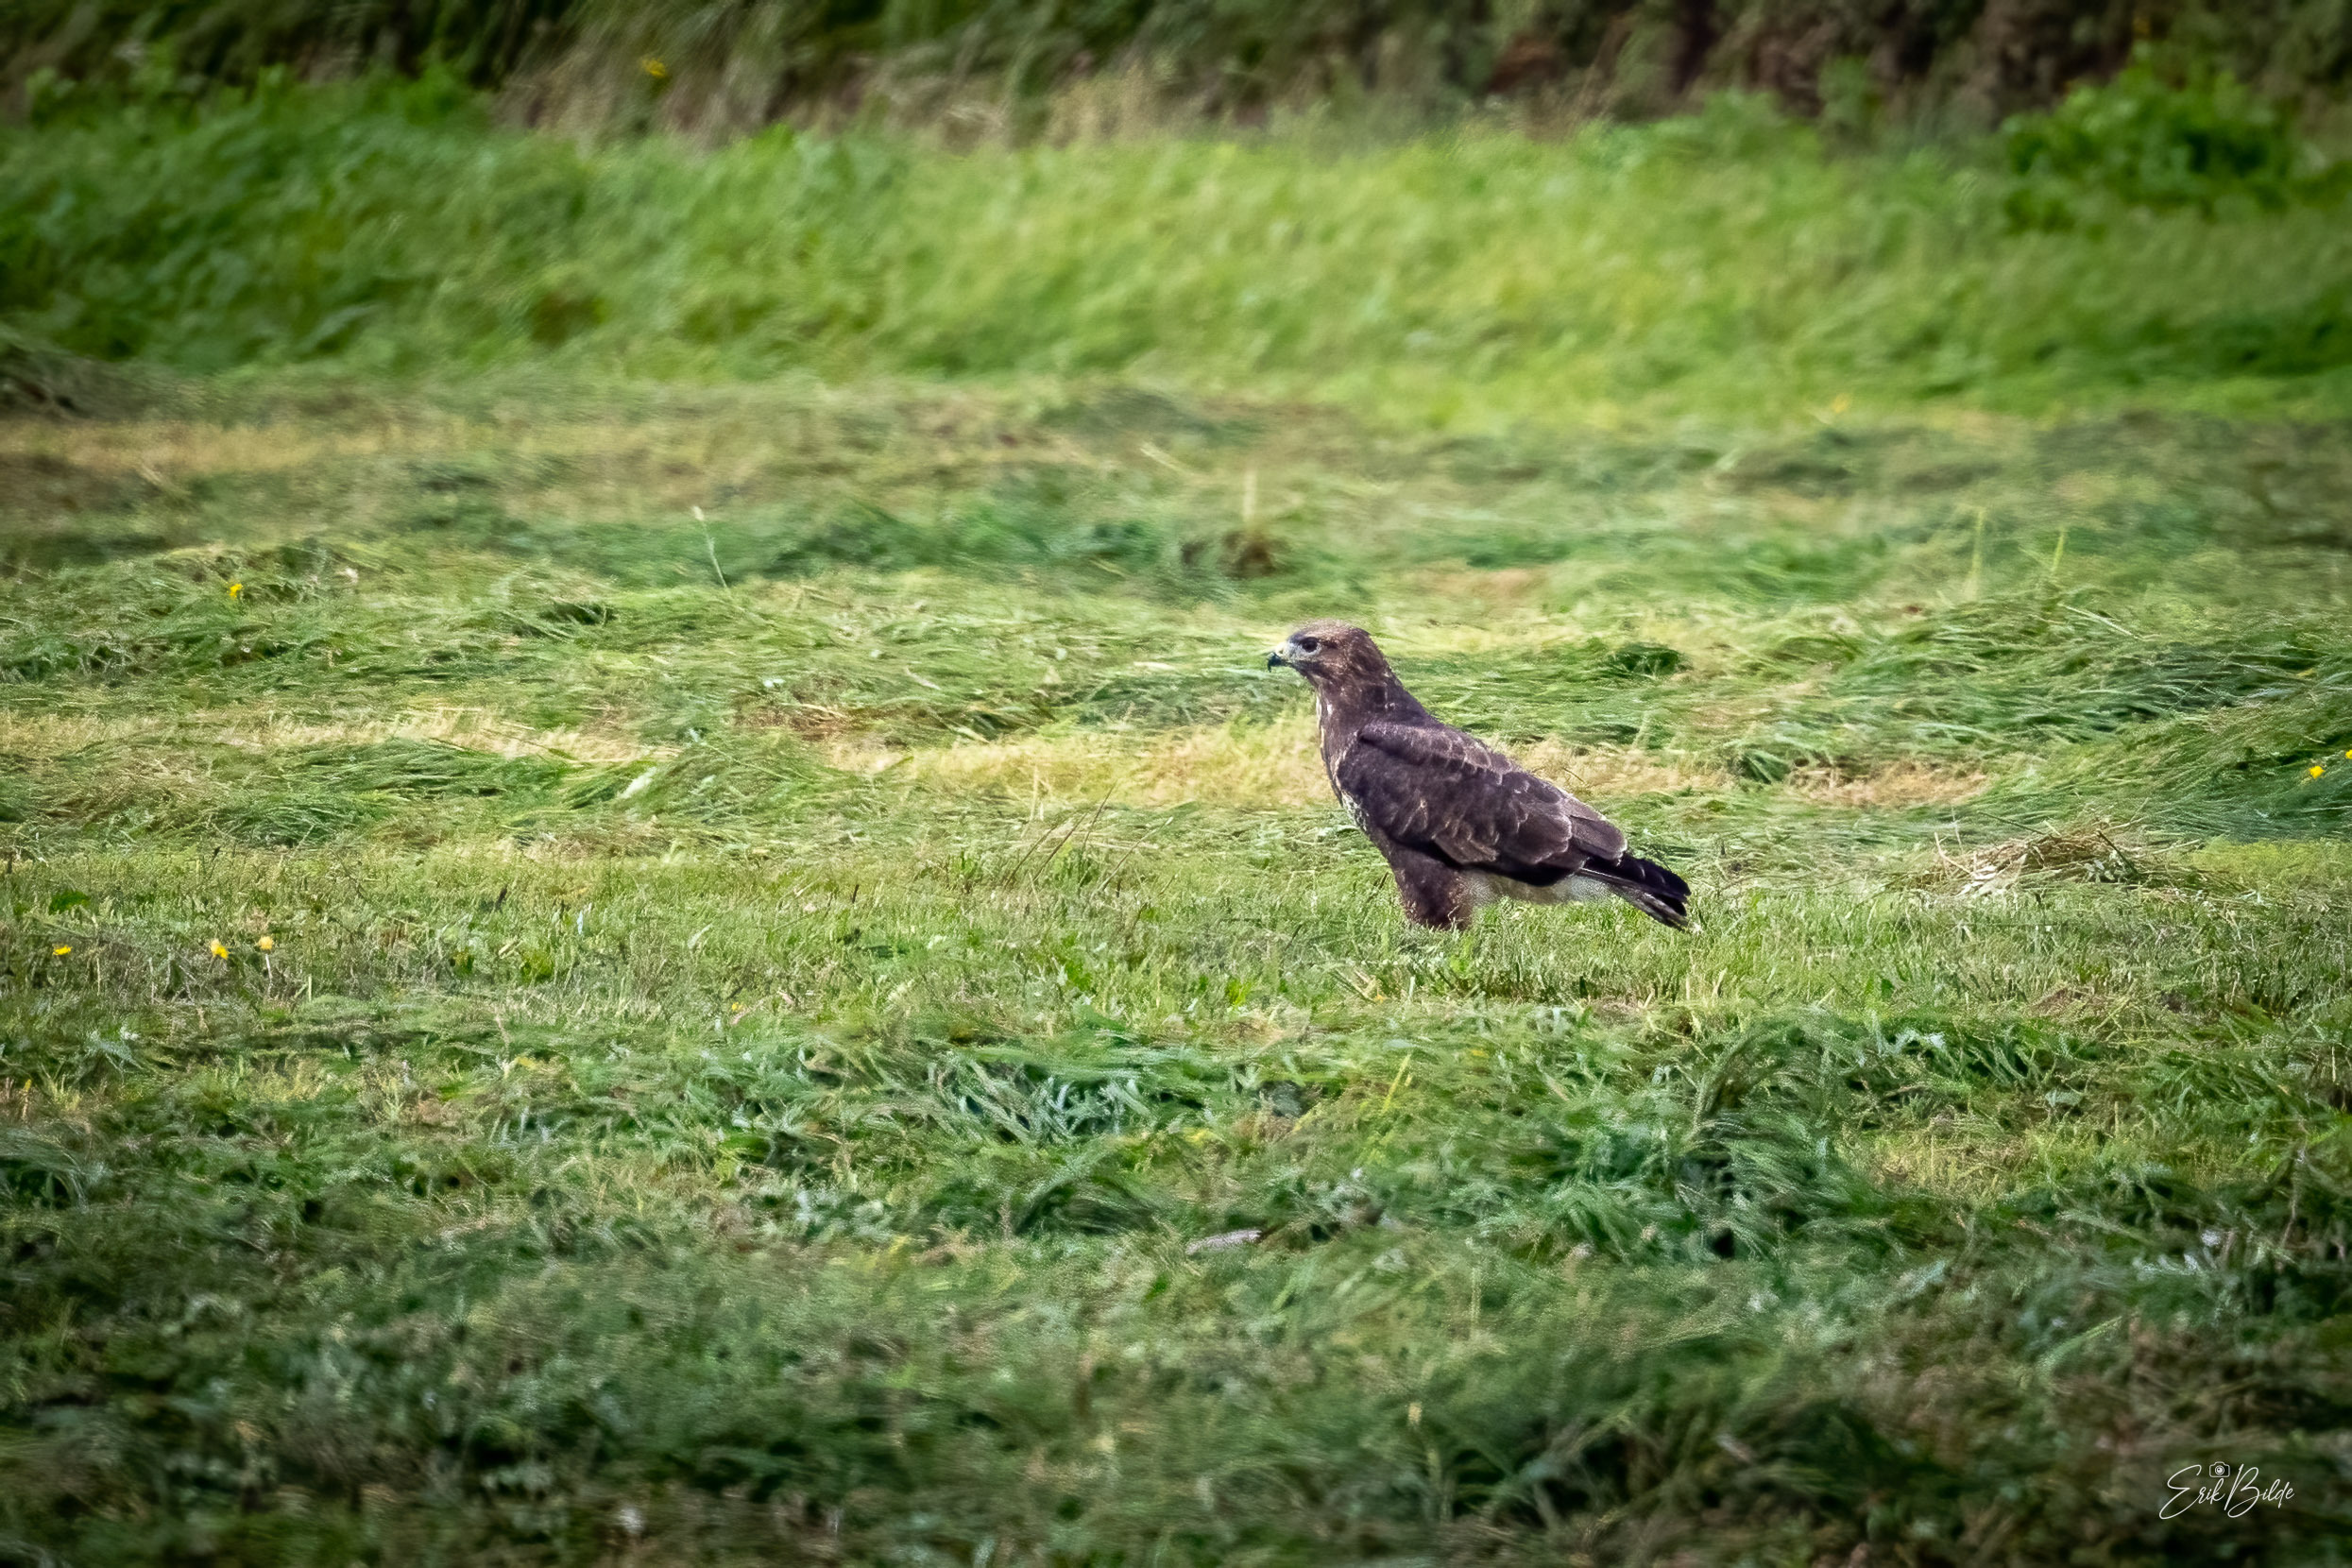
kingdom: Animalia
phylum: Chordata
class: Aves
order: Accipitriformes
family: Accipitridae
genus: Buteo
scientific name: Buteo buteo
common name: Musvåge
